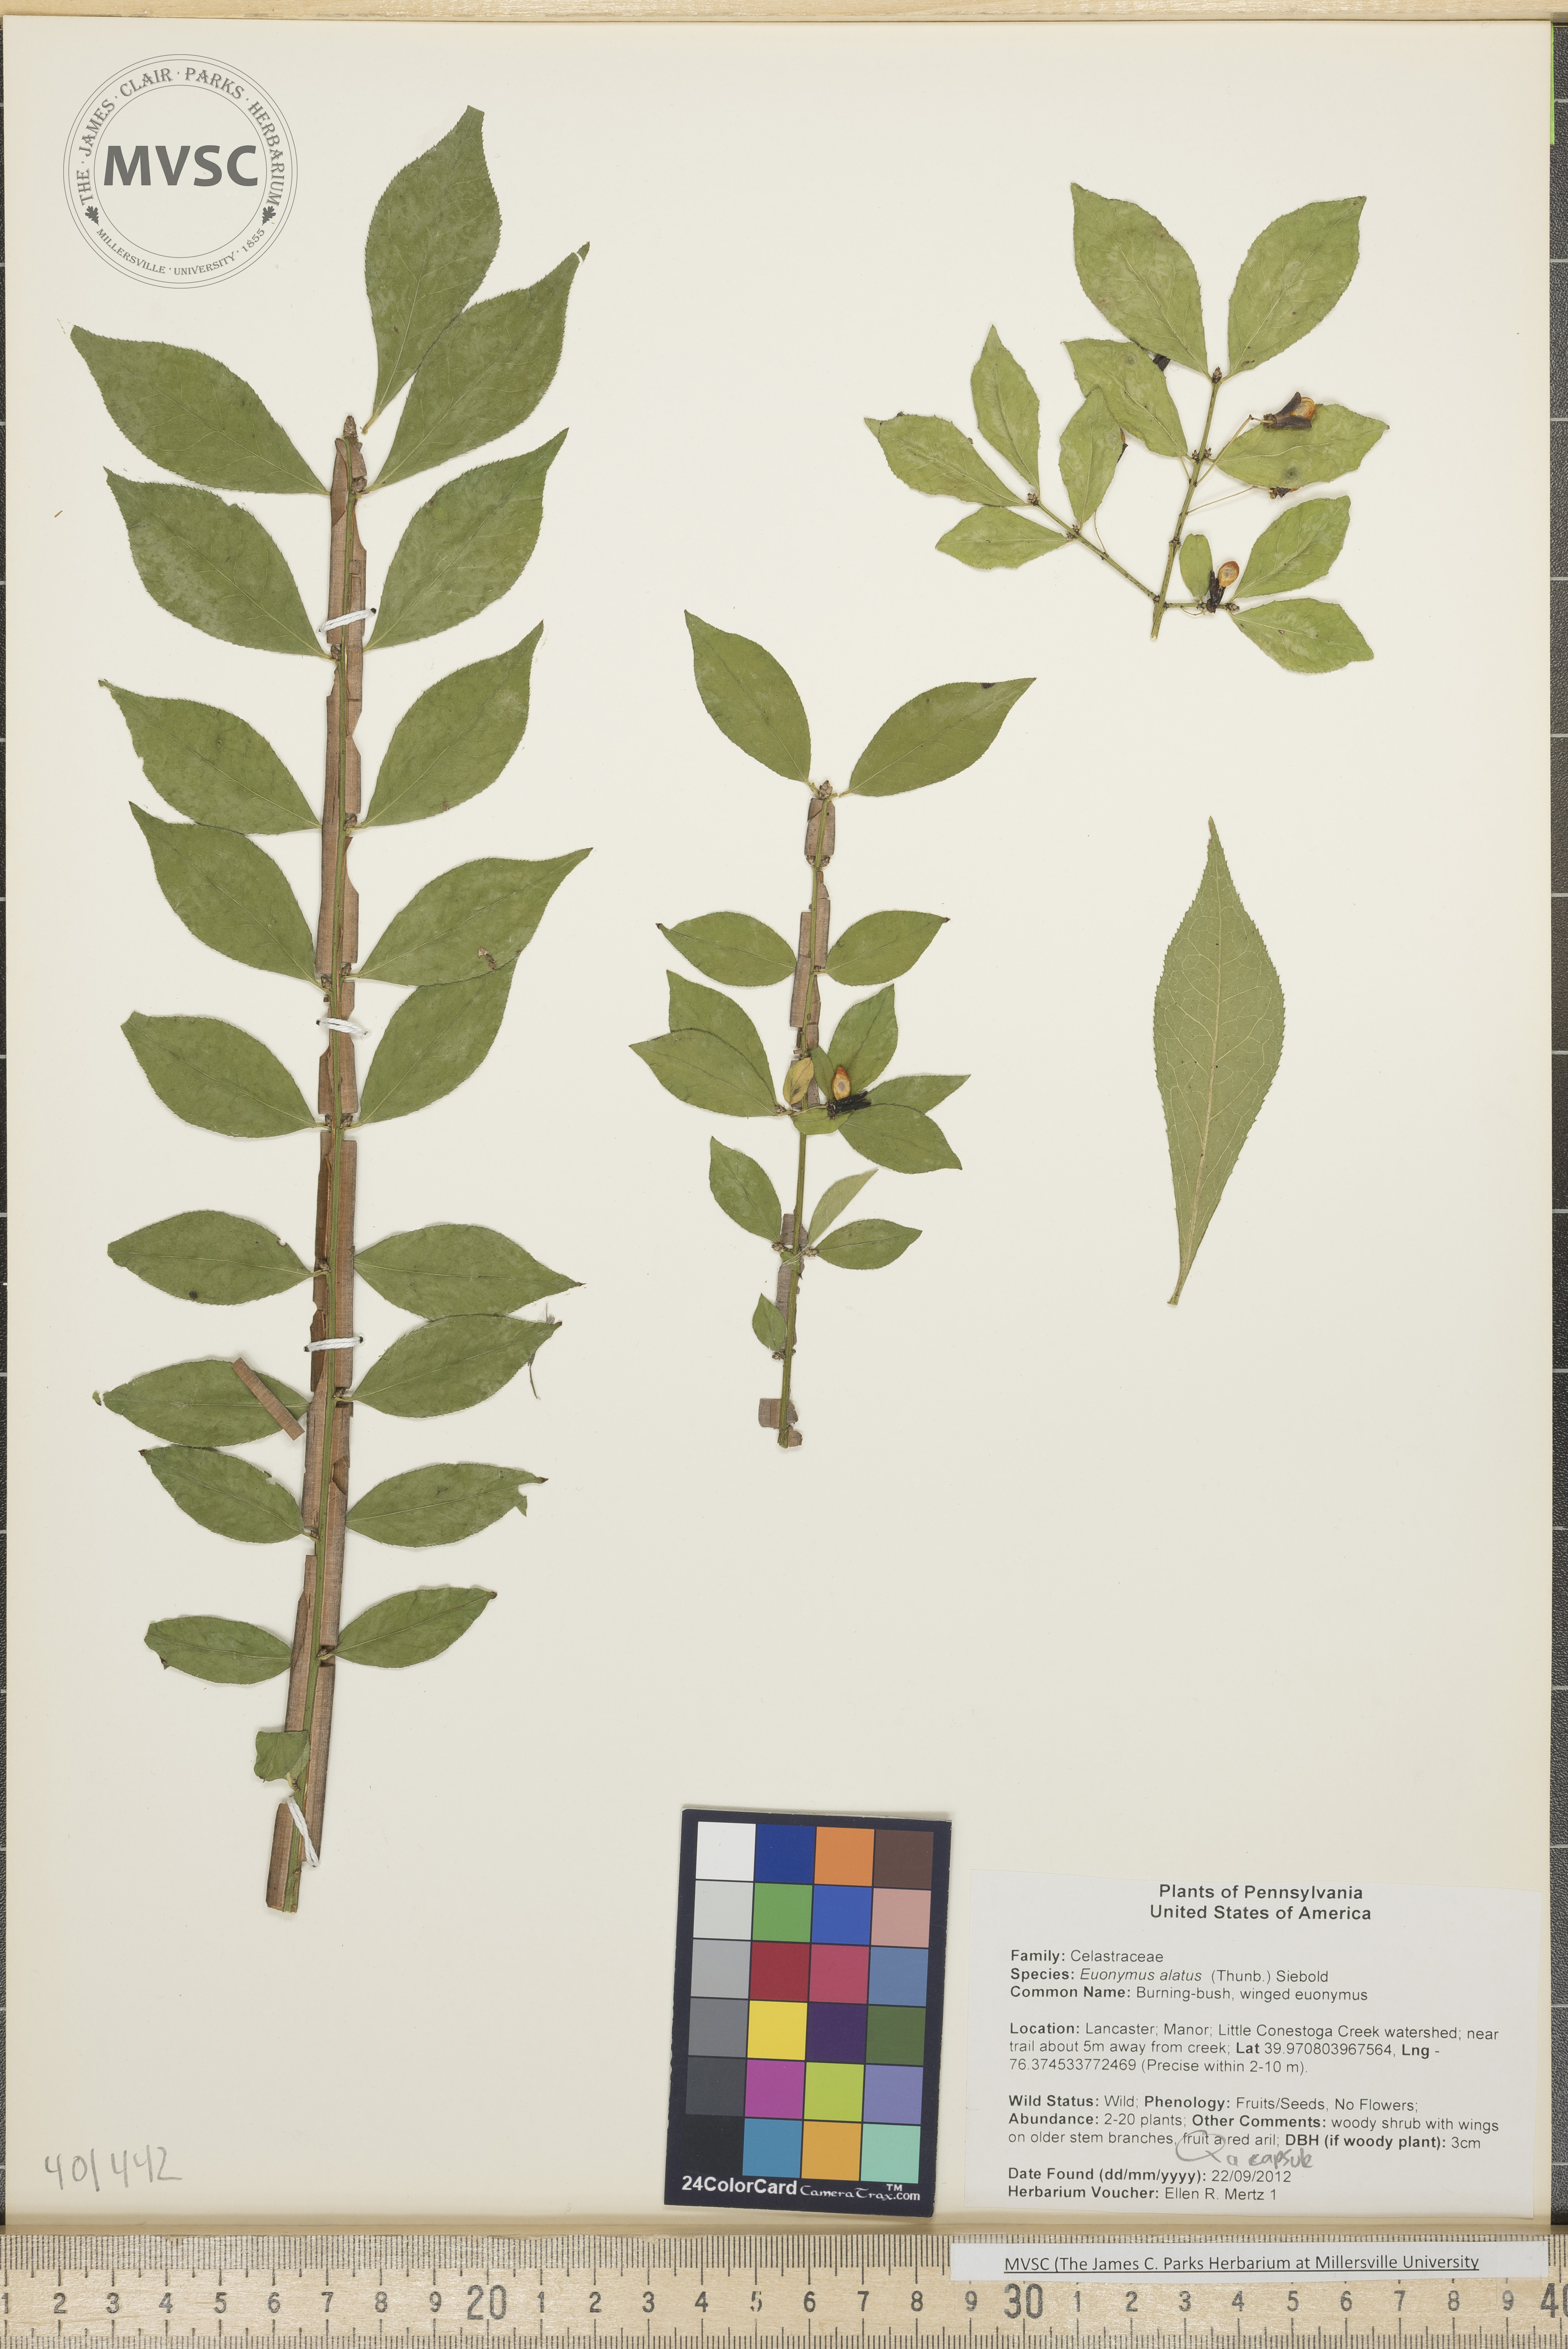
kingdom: Plantae
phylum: Tracheophyta
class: Magnoliopsida
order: Celastrales
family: Celastraceae
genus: Euonymus
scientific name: Euonymus alatus
